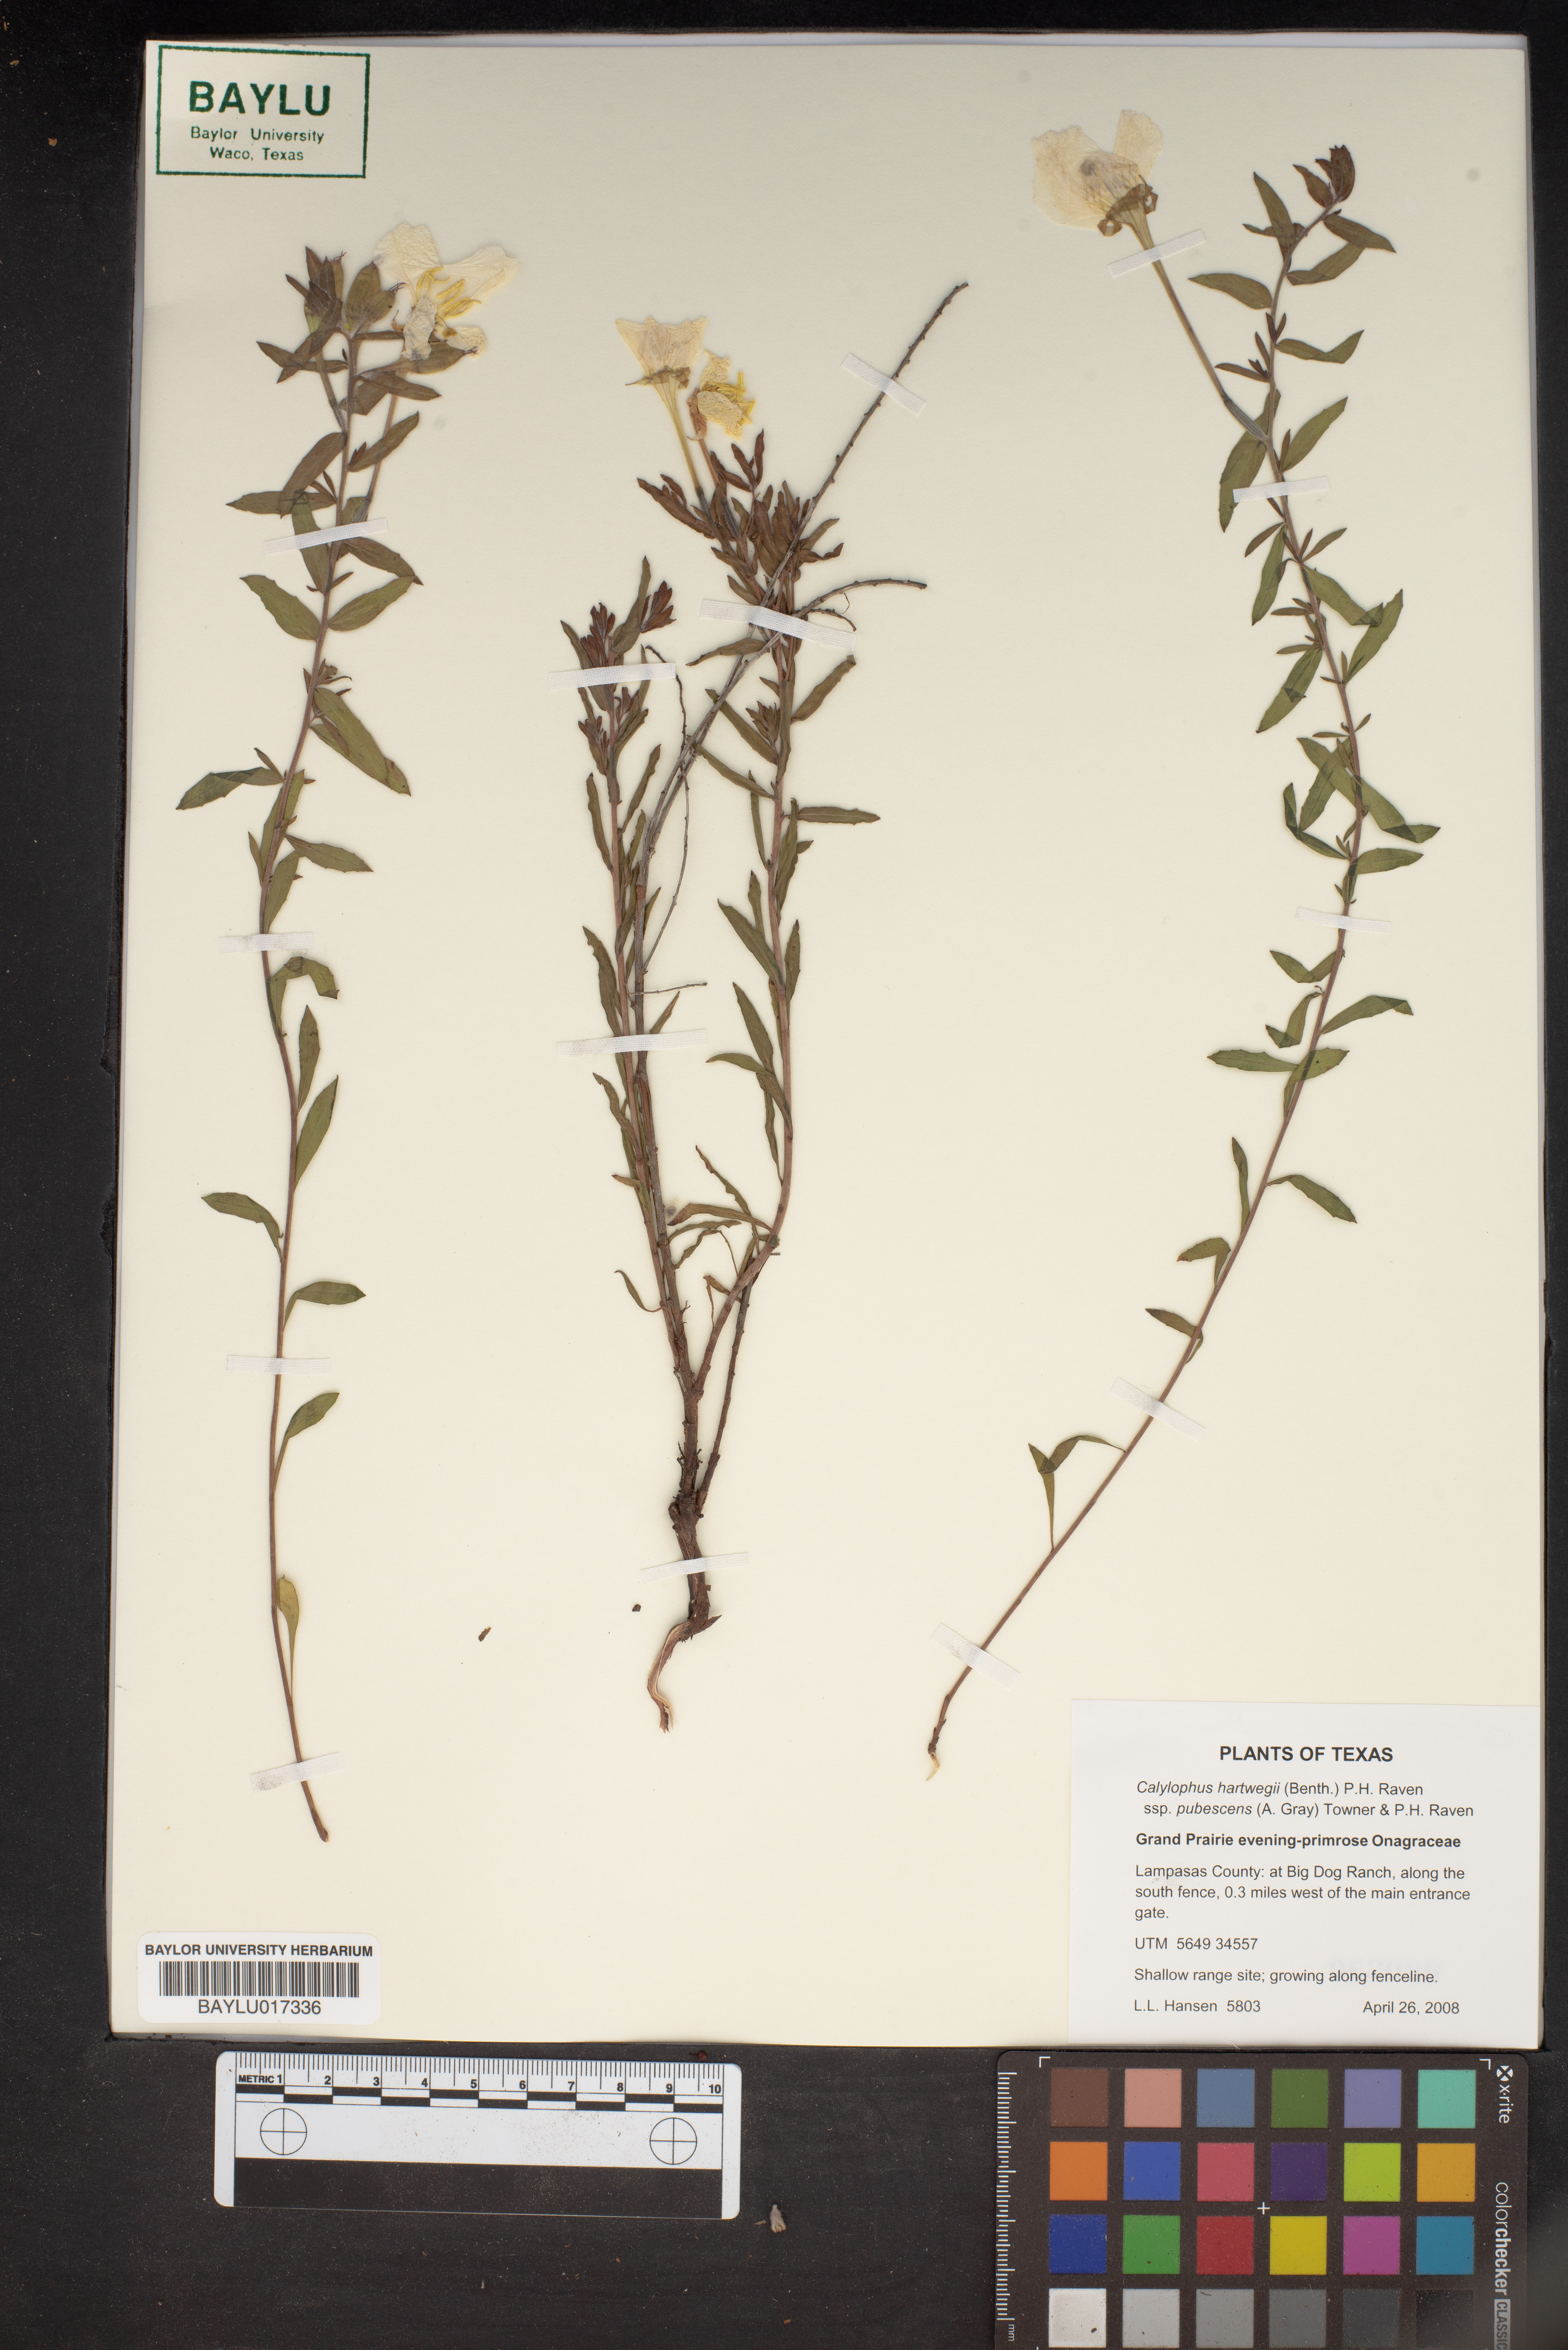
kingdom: Plantae
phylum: Tracheophyta
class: Magnoliopsida
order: Myrtales
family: Onagraceae
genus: Oenothera
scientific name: Oenothera hartwegii
